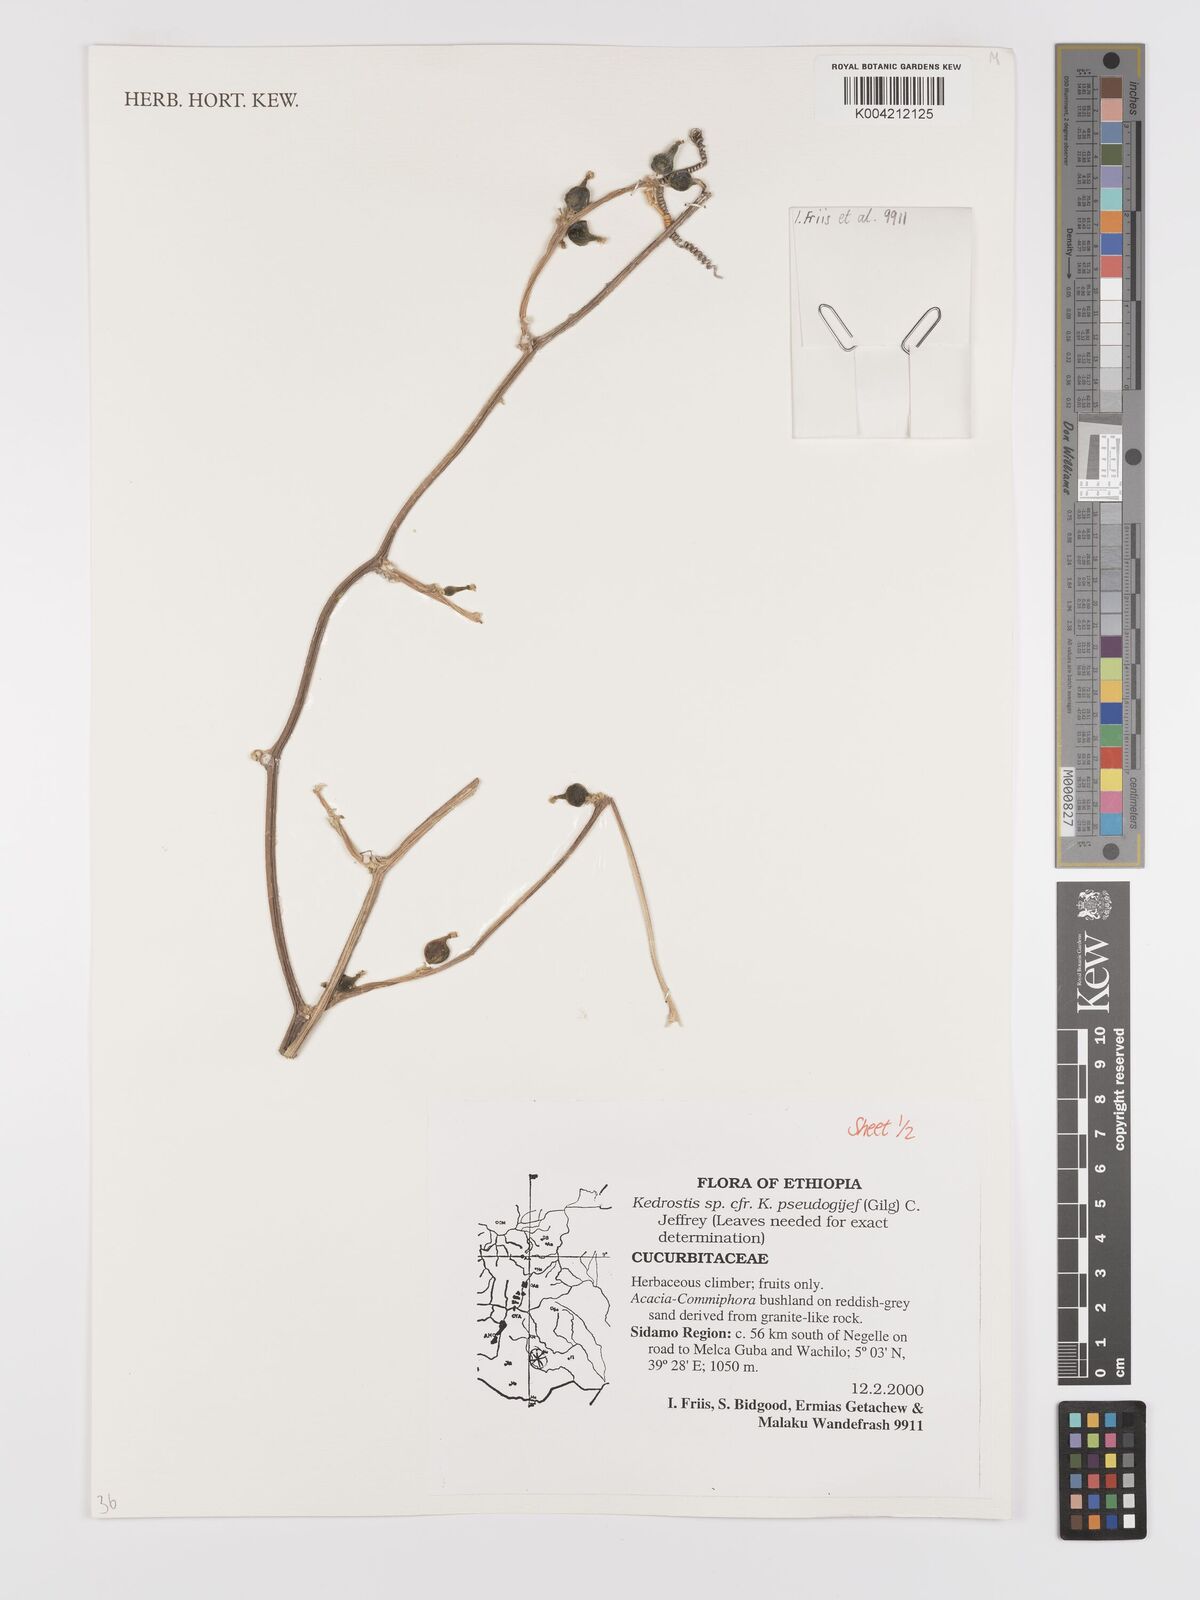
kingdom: Plantae
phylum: Tracheophyta
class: Magnoliopsida
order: Cucurbitales
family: Cucurbitaceae
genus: Kedrostis
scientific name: Kedrostis pseudogijef
